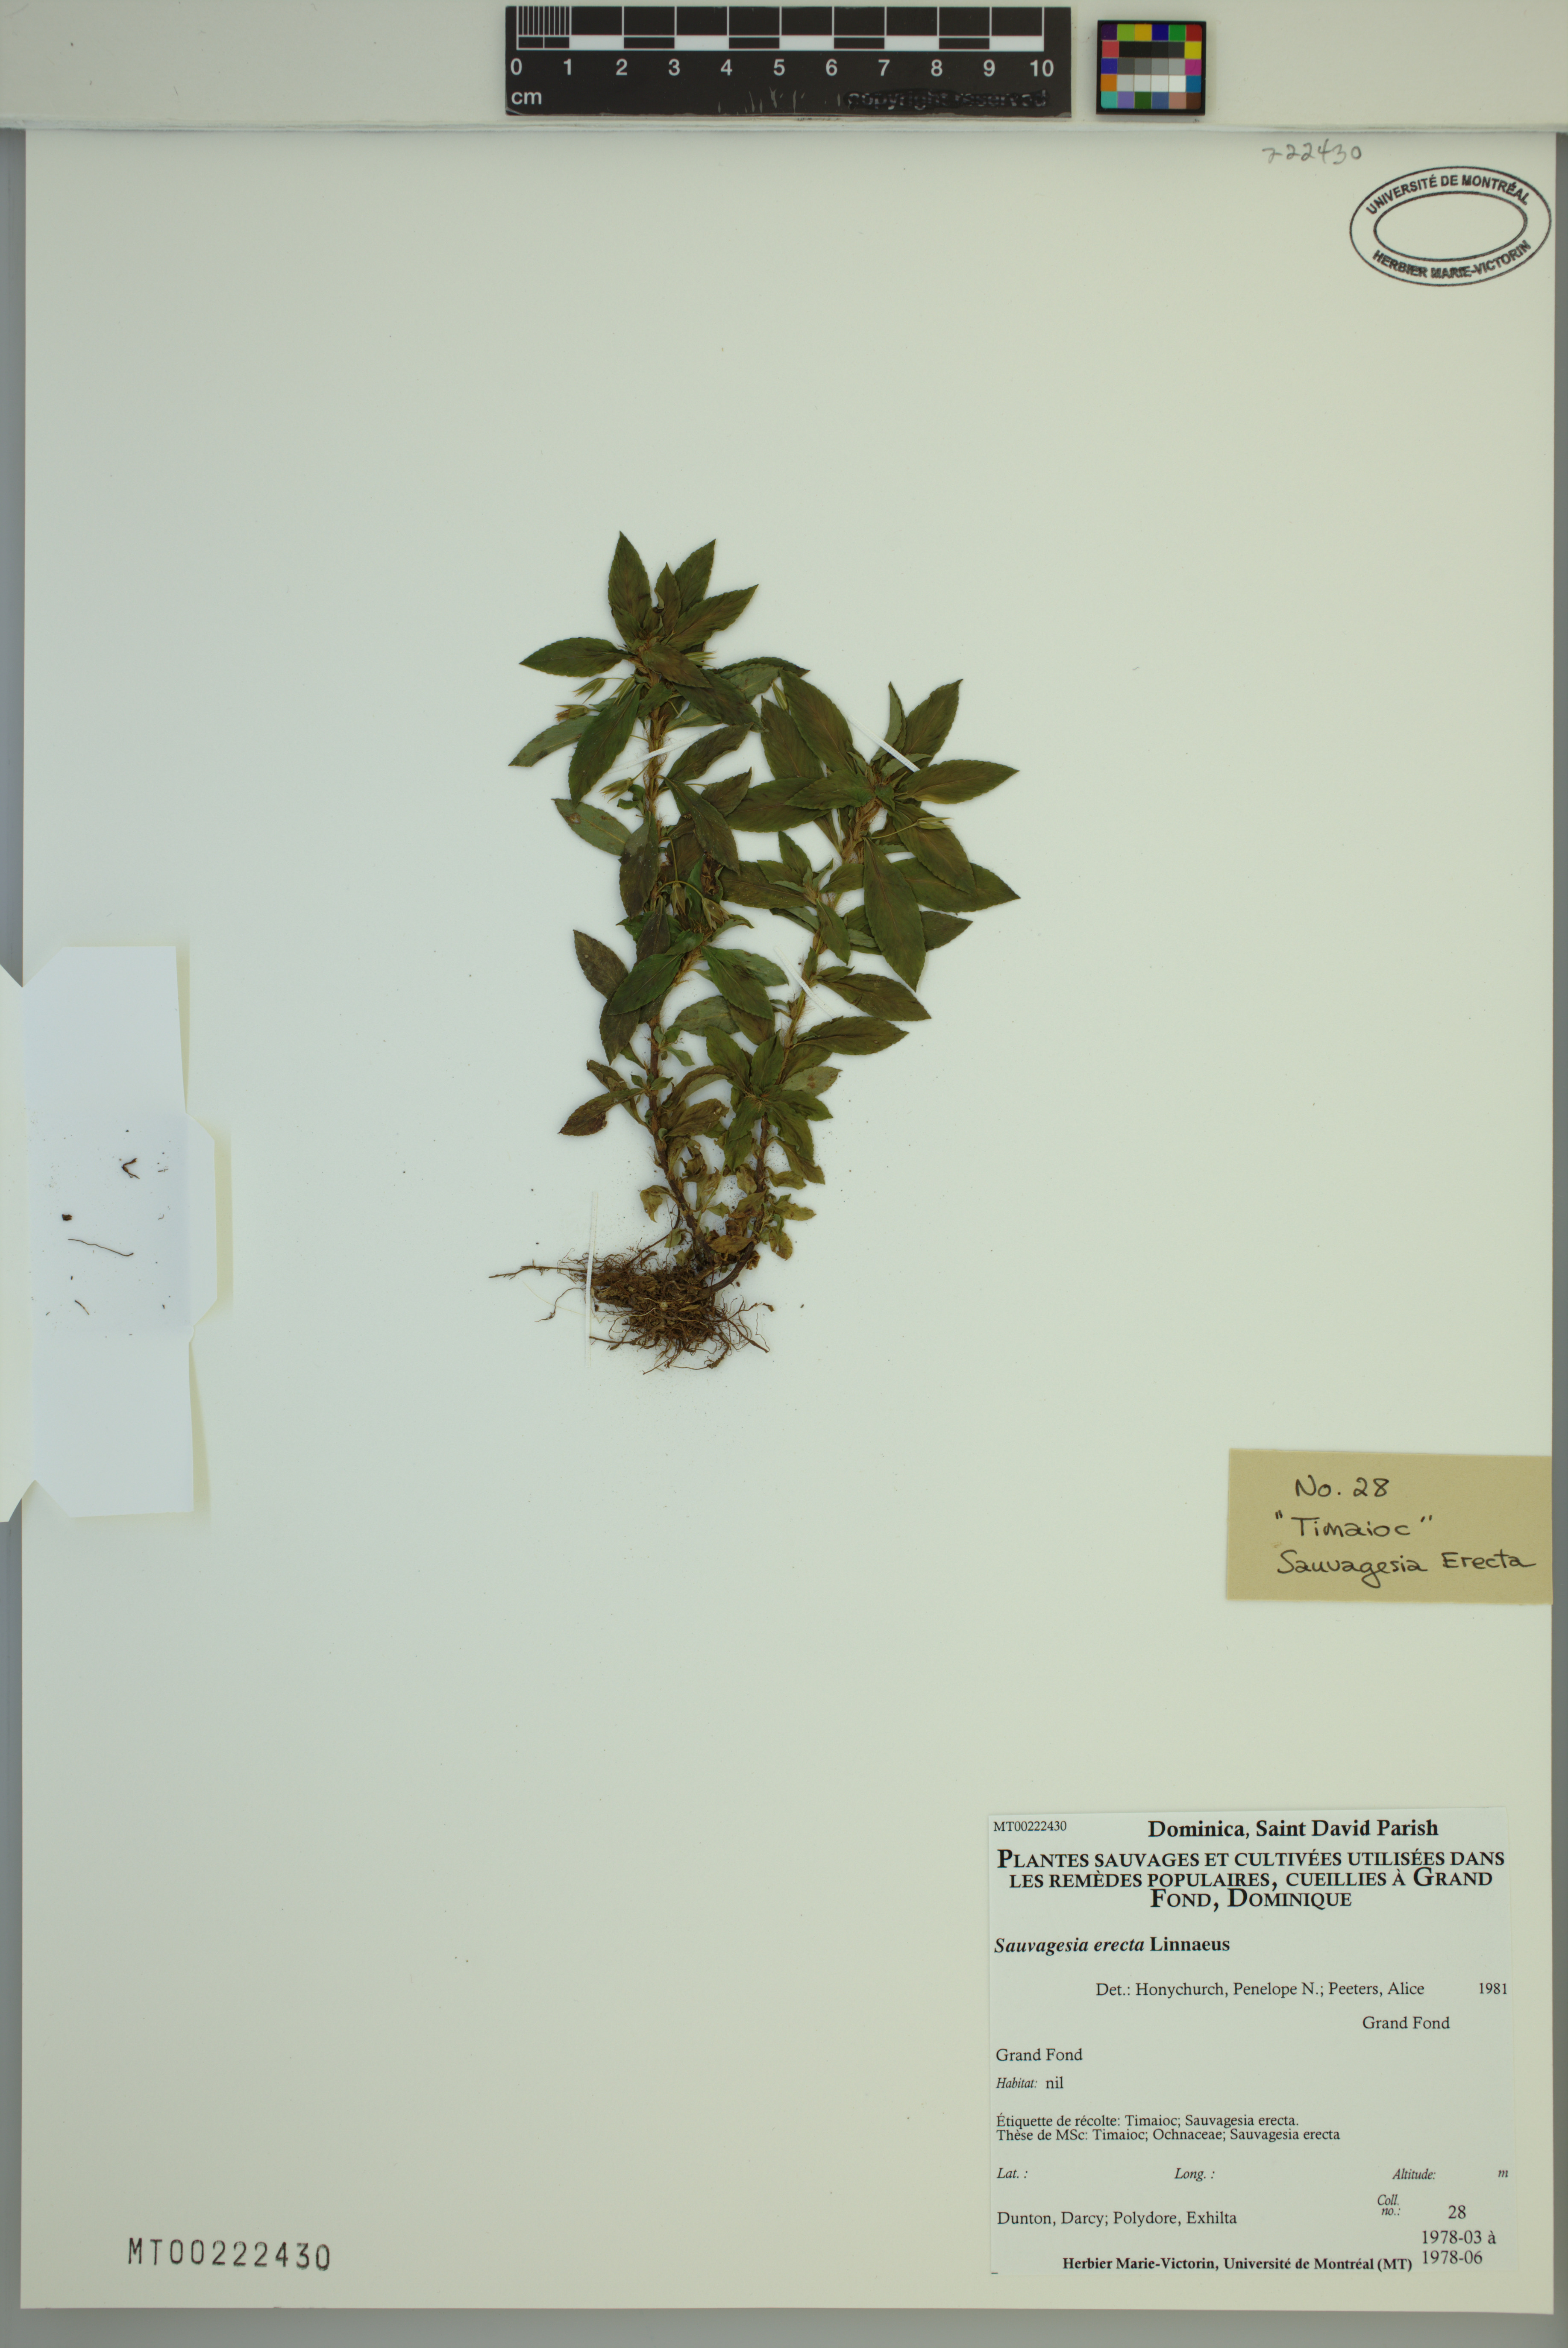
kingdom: Plantae
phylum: Tracheophyta
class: Magnoliopsida
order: Malpighiales
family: Ochnaceae
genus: Sauvagesia
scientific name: Sauvagesia erecta
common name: Creole tea
